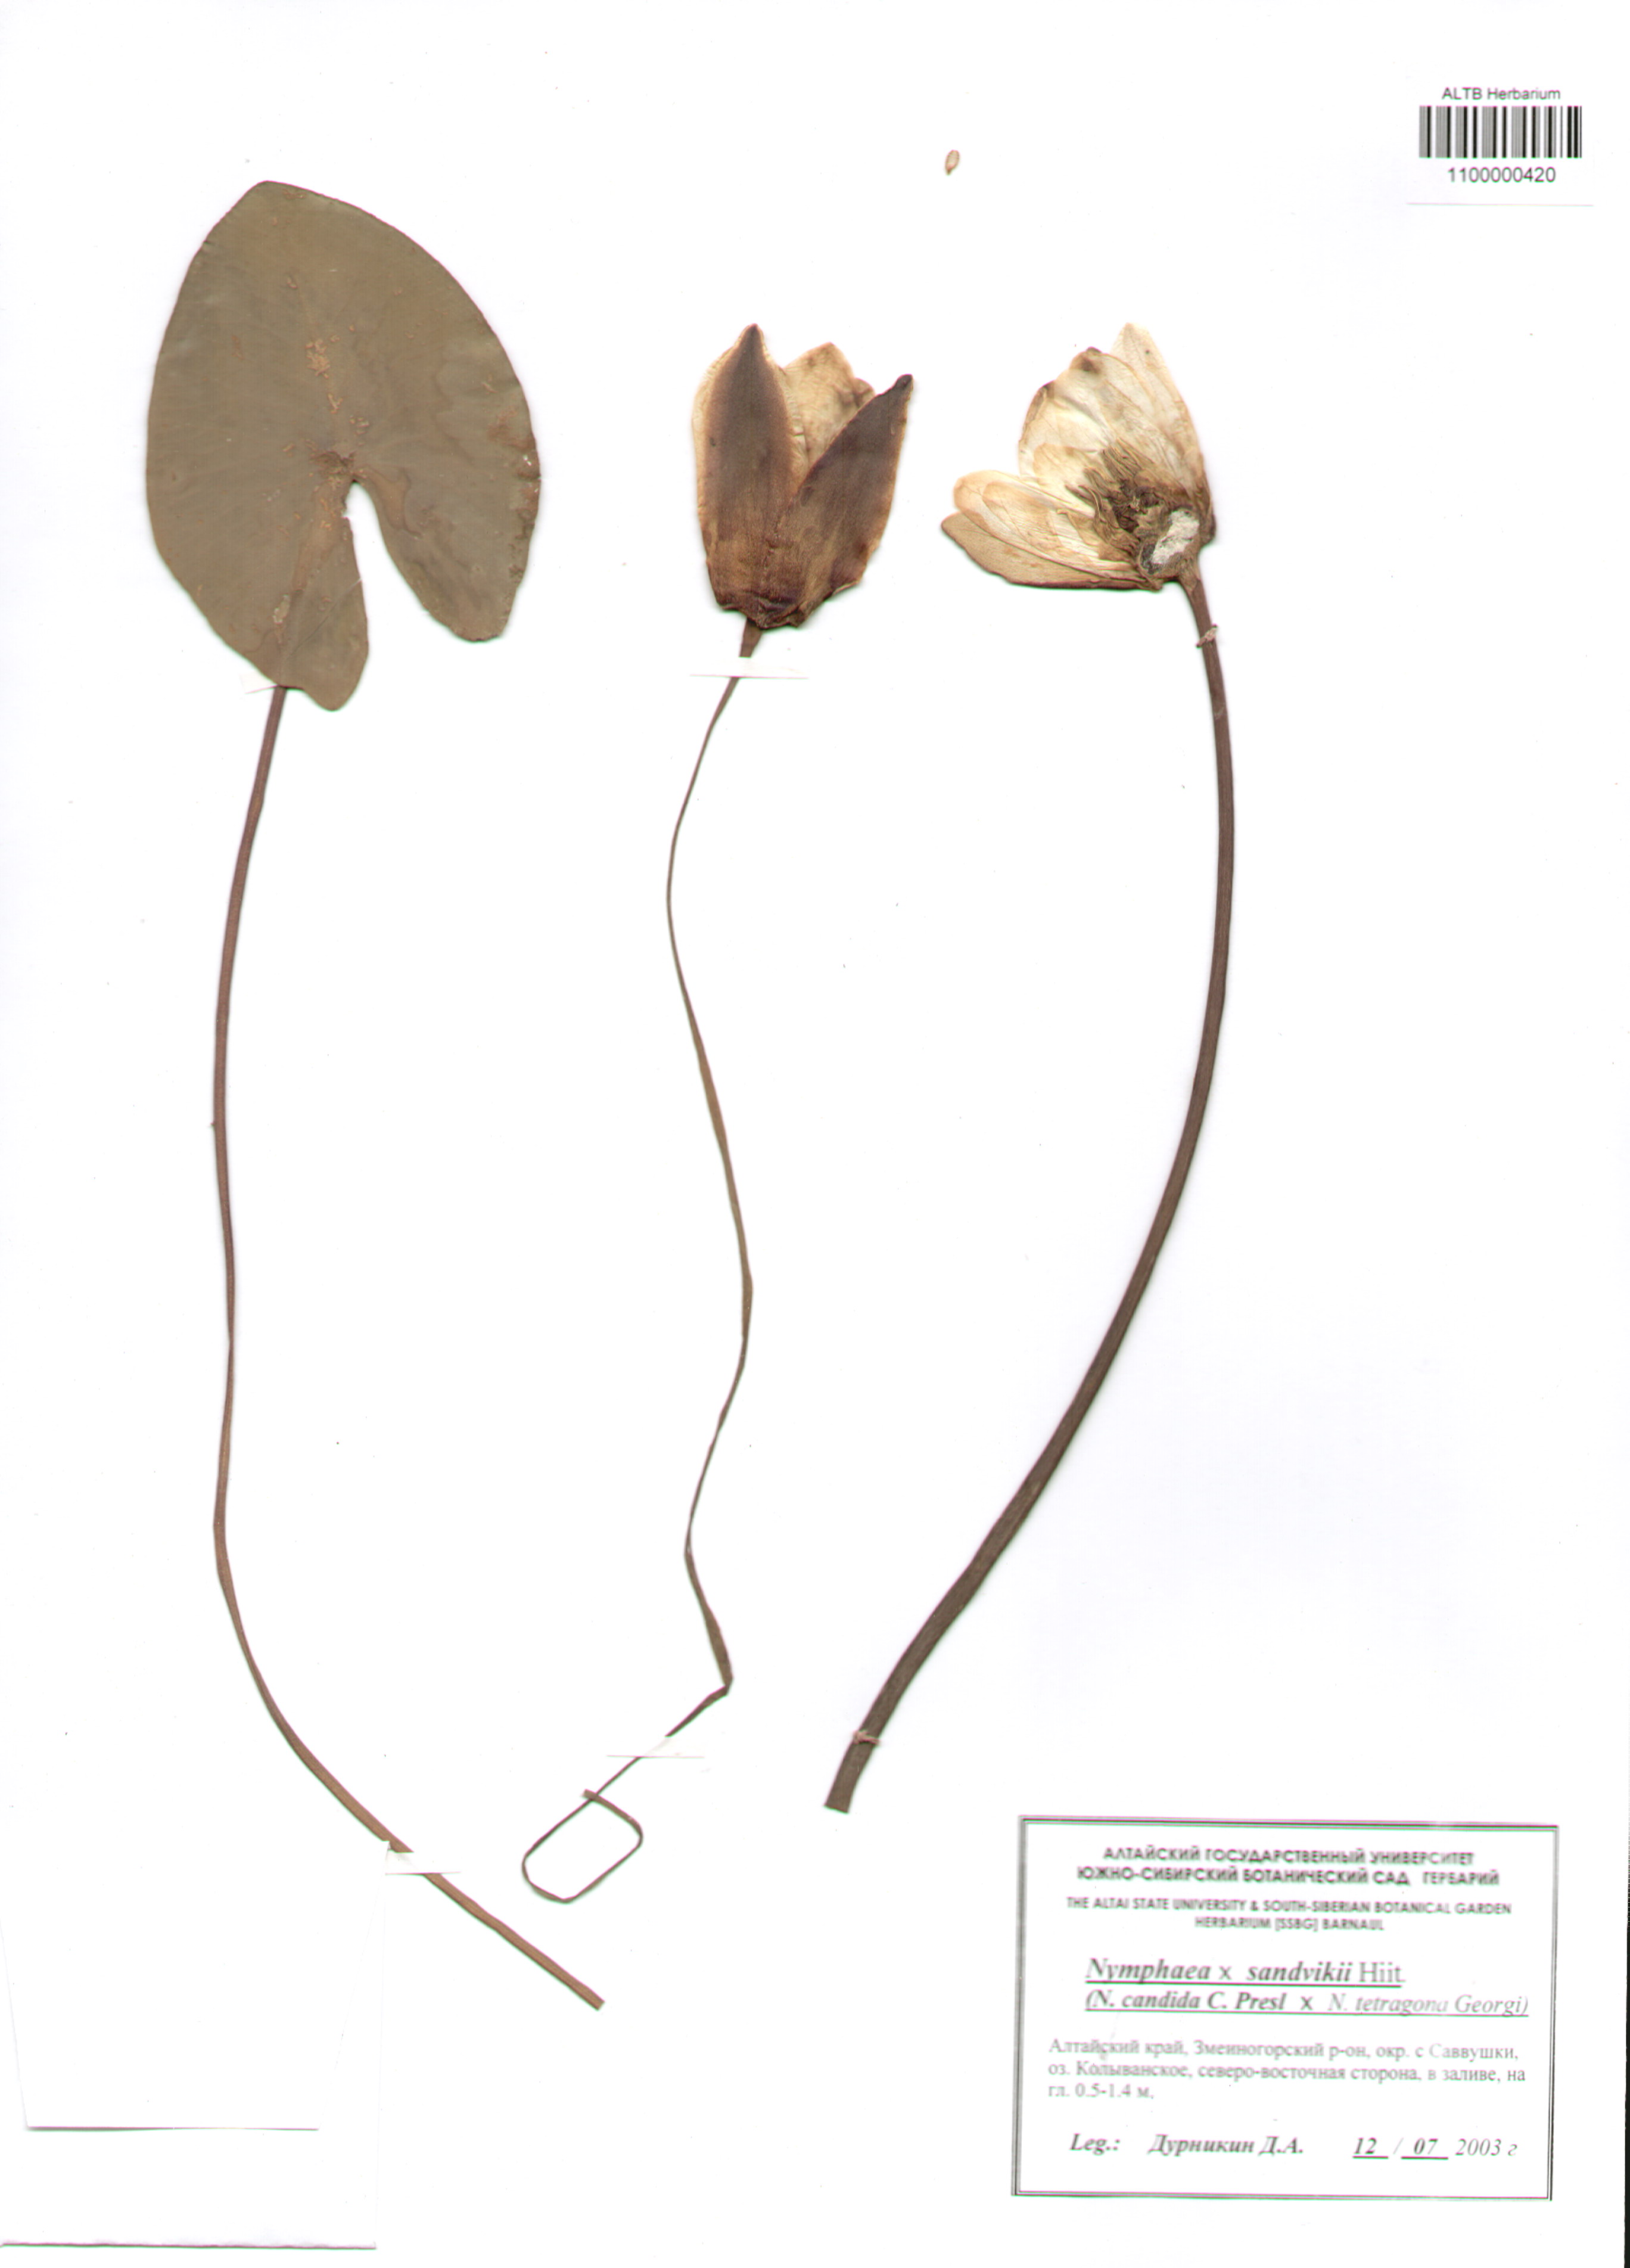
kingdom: Plantae
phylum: Tracheophyta
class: Magnoliopsida
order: Nymphaeales
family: Nymphaeaceae
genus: Nymphaea
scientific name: Nymphaea sundvikii
